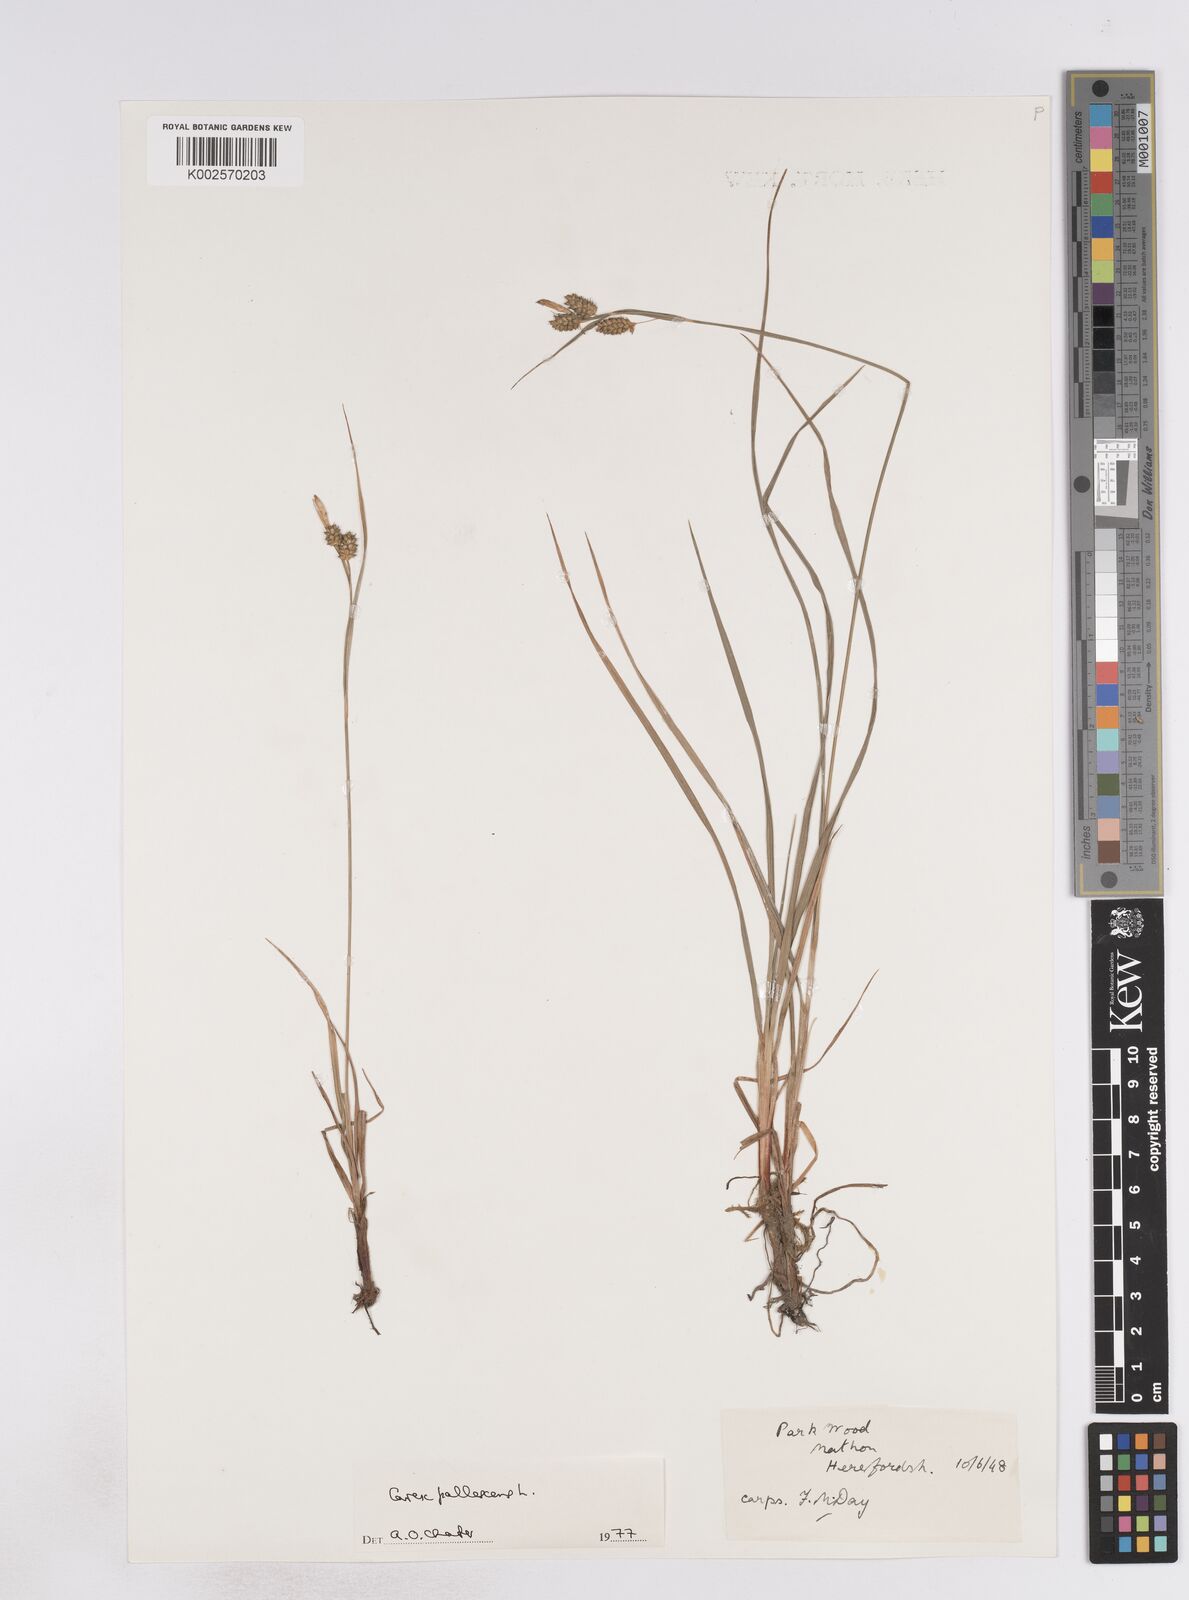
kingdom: Plantae
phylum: Tracheophyta
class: Liliopsida
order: Poales
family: Cyperaceae
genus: Carex
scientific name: Carex pallescens
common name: Pale sedge
